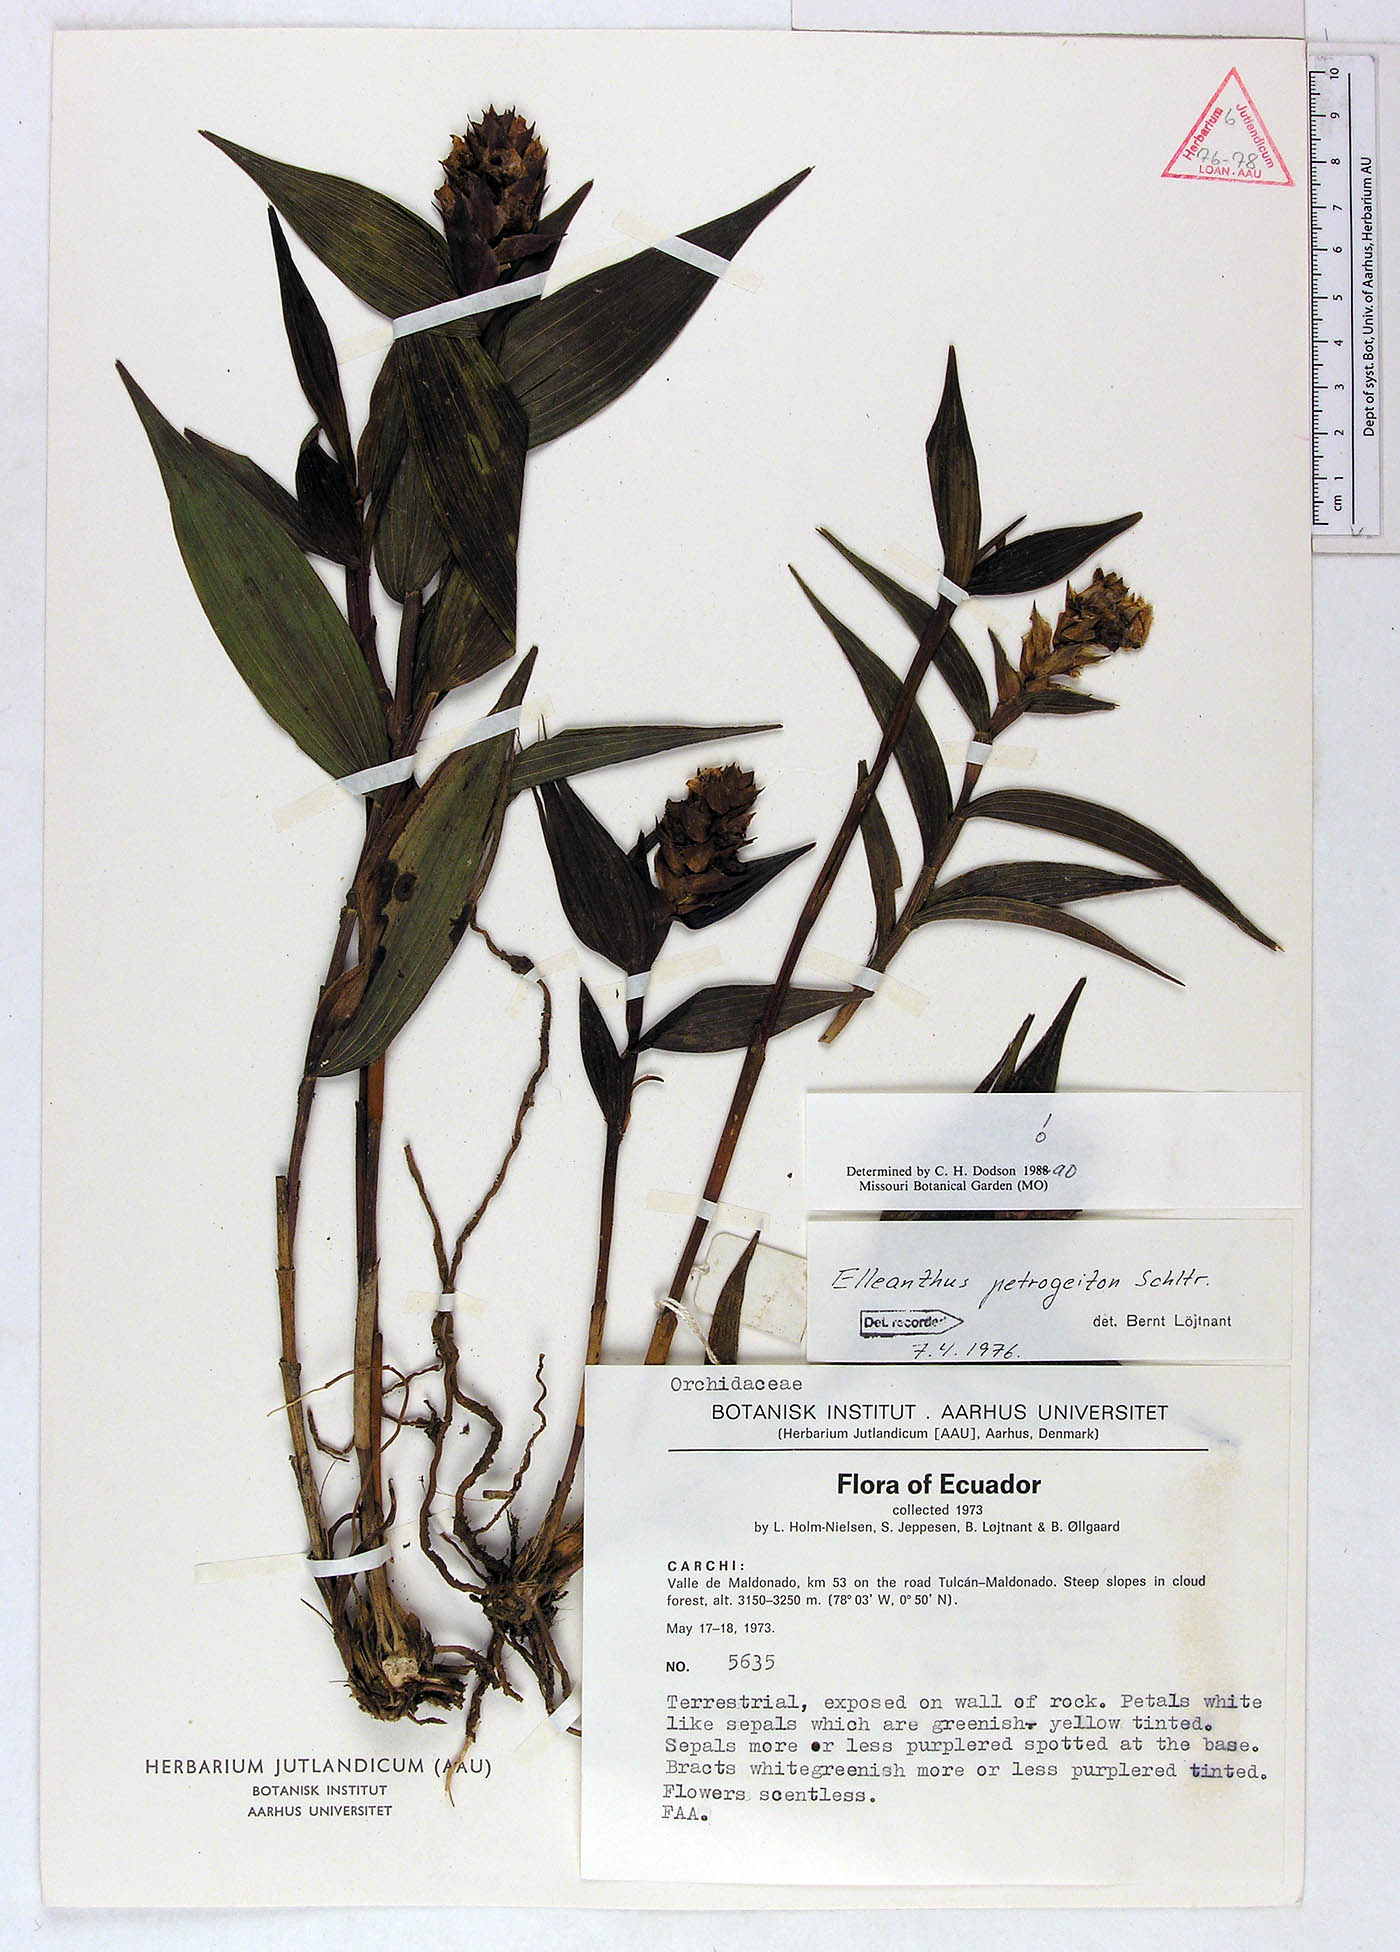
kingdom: Plantae
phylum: Tracheophyta
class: Liliopsida
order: Asparagales
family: Orchidaceae
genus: Elleanthus
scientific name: Elleanthus petrogeiton
